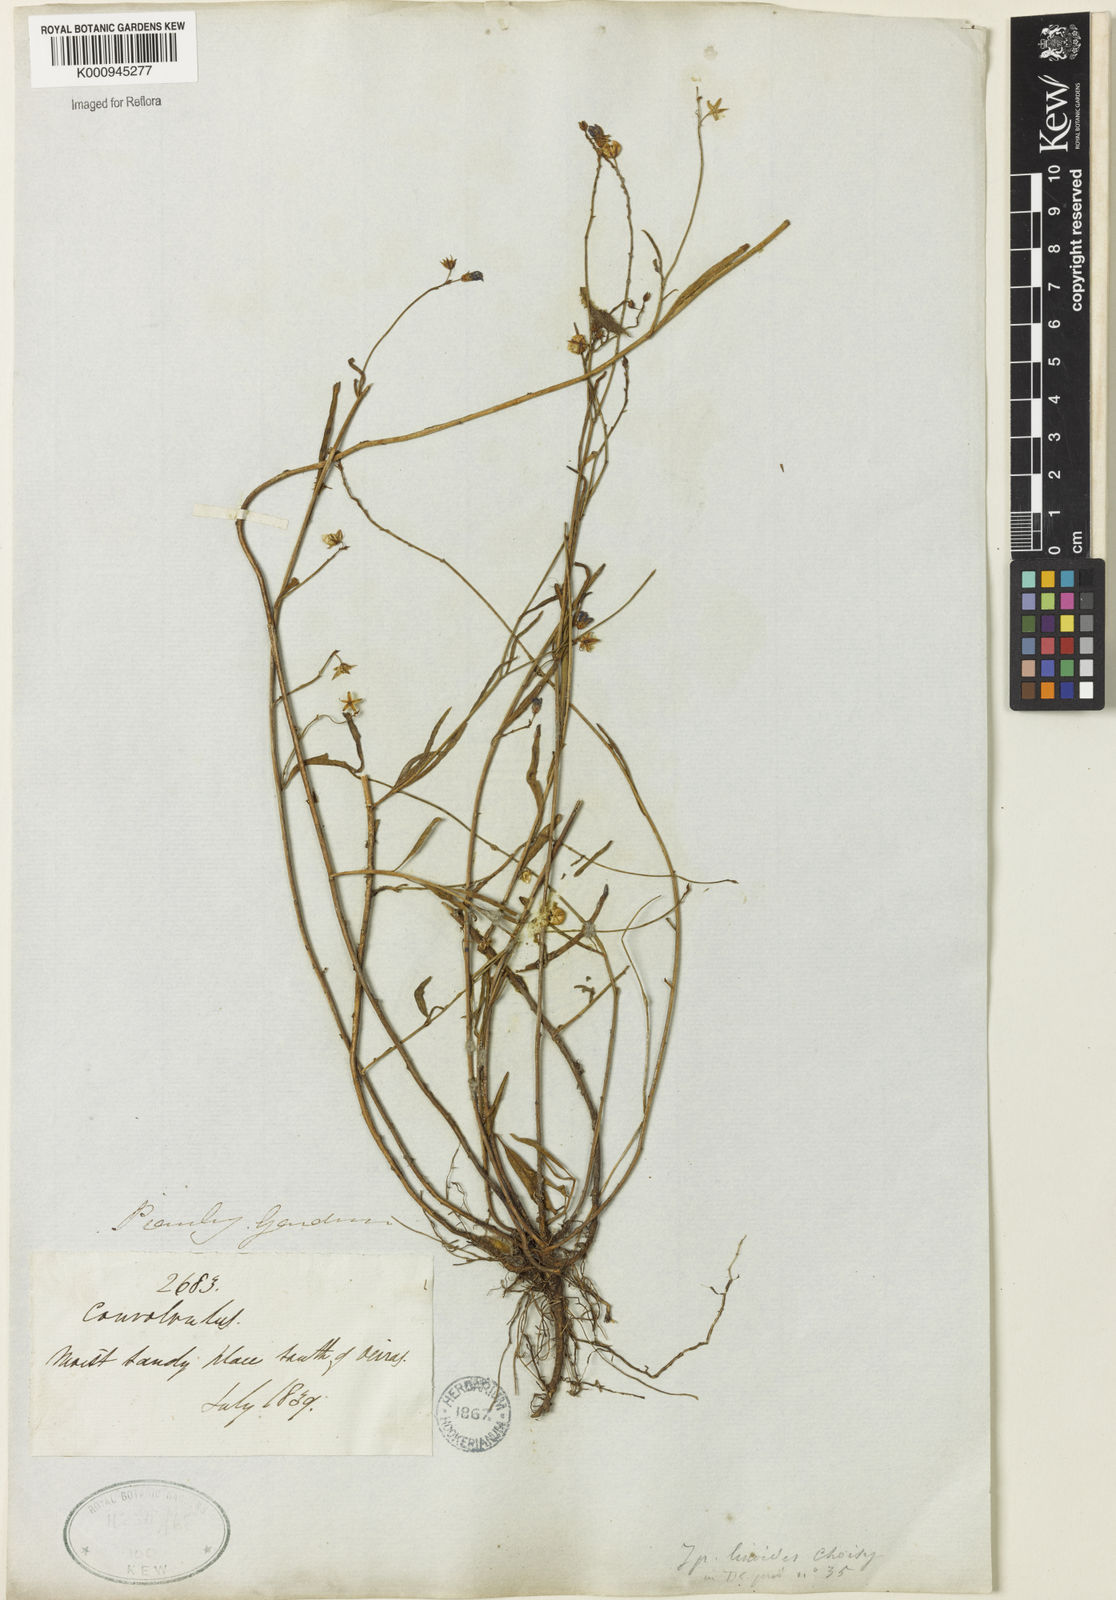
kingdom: Plantae
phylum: Tracheophyta
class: Magnoliopsida
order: Solanales
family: Convolvulaceae
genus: Jacquemontia
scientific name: Jacquemontia linoides
